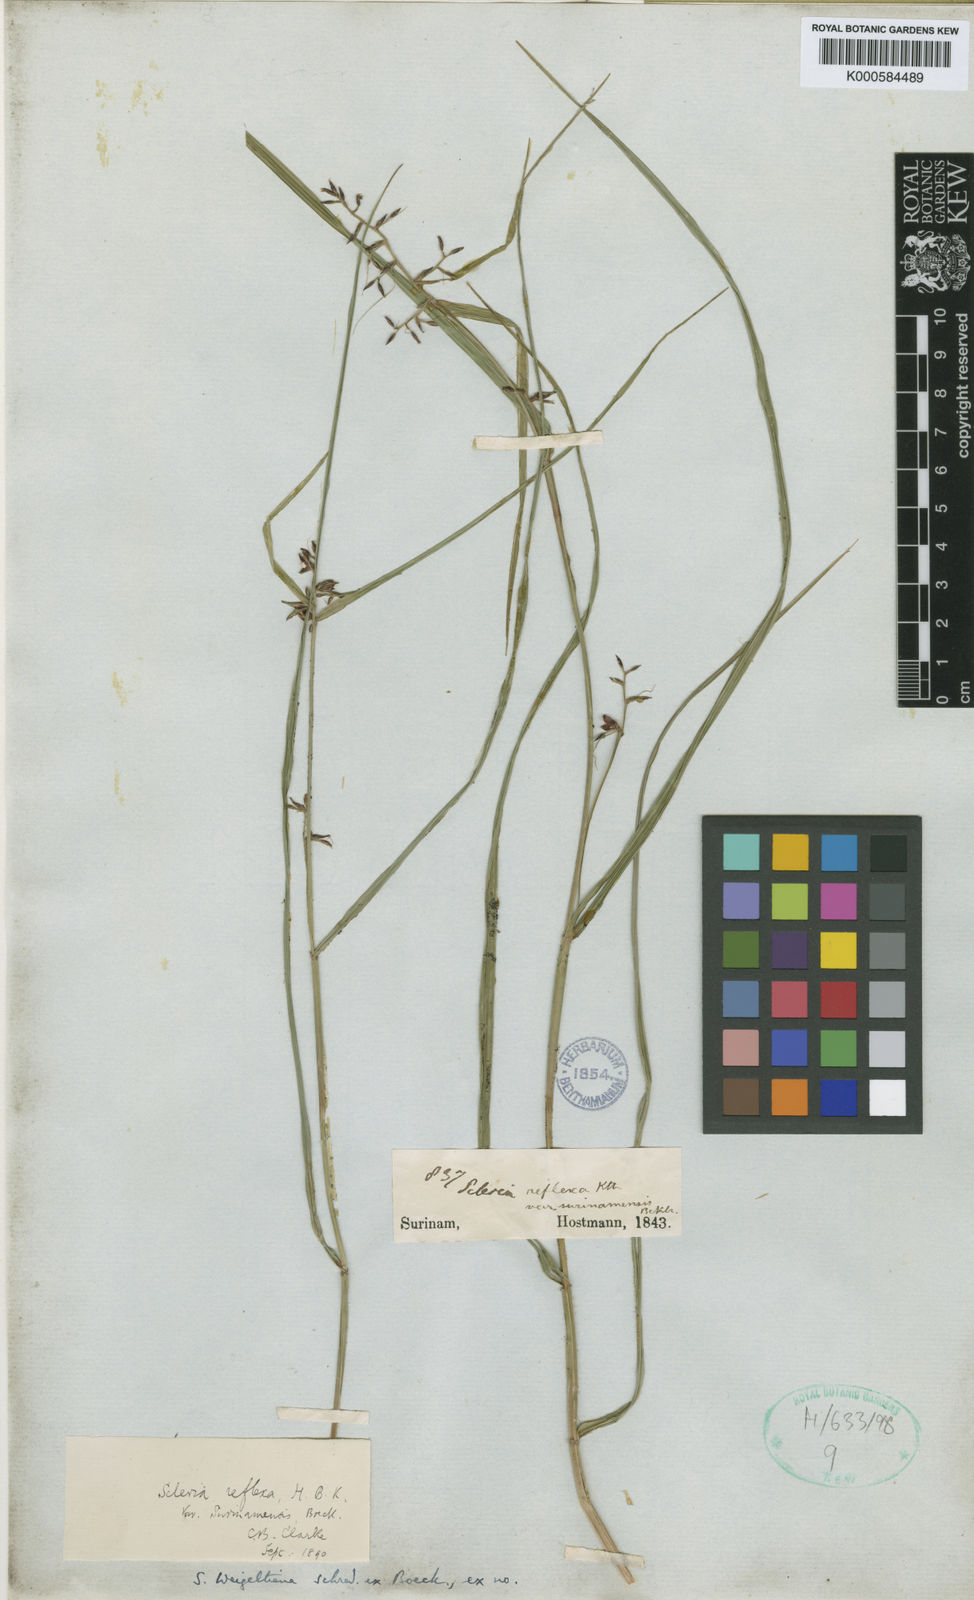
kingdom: Plantae
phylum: Tracheophyta
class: Liliopsida
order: Poales
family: Cyperaceae
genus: Scleria
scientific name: Scleria scabra
